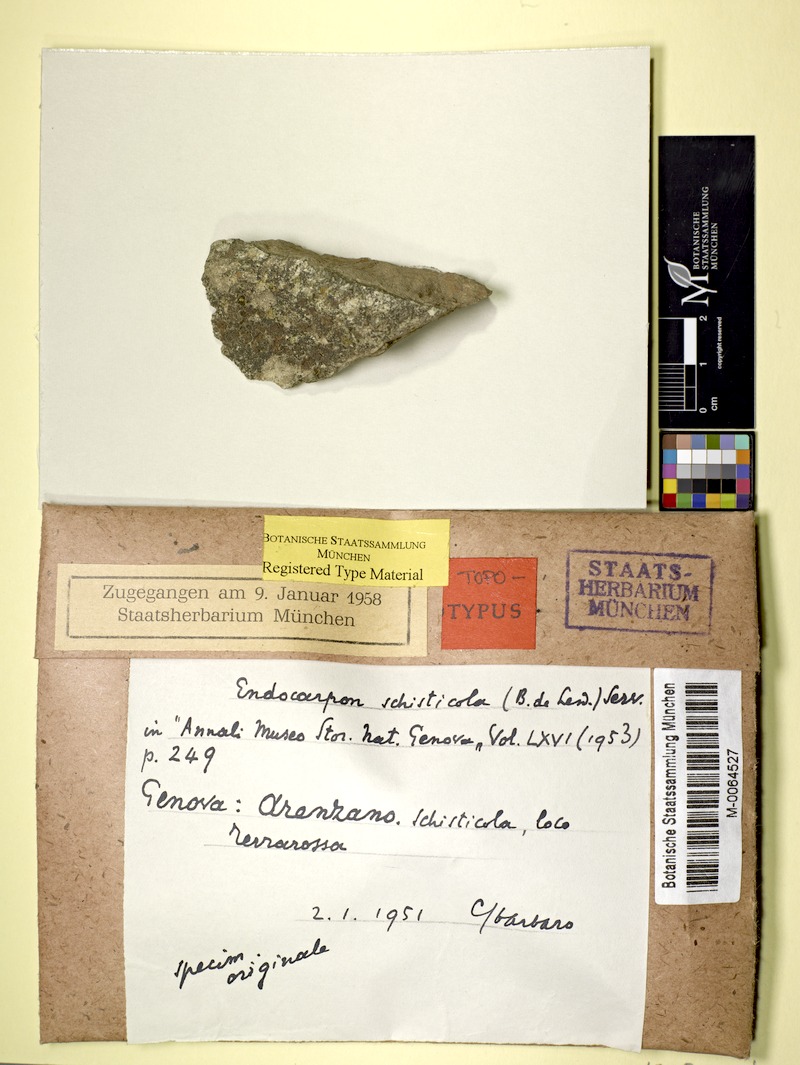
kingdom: Fungi
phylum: Ascomycota
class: Eurotiomycetes
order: Verrucariales
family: Verrucariaceae
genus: Endocarpon
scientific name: Endocarpon schisticola
